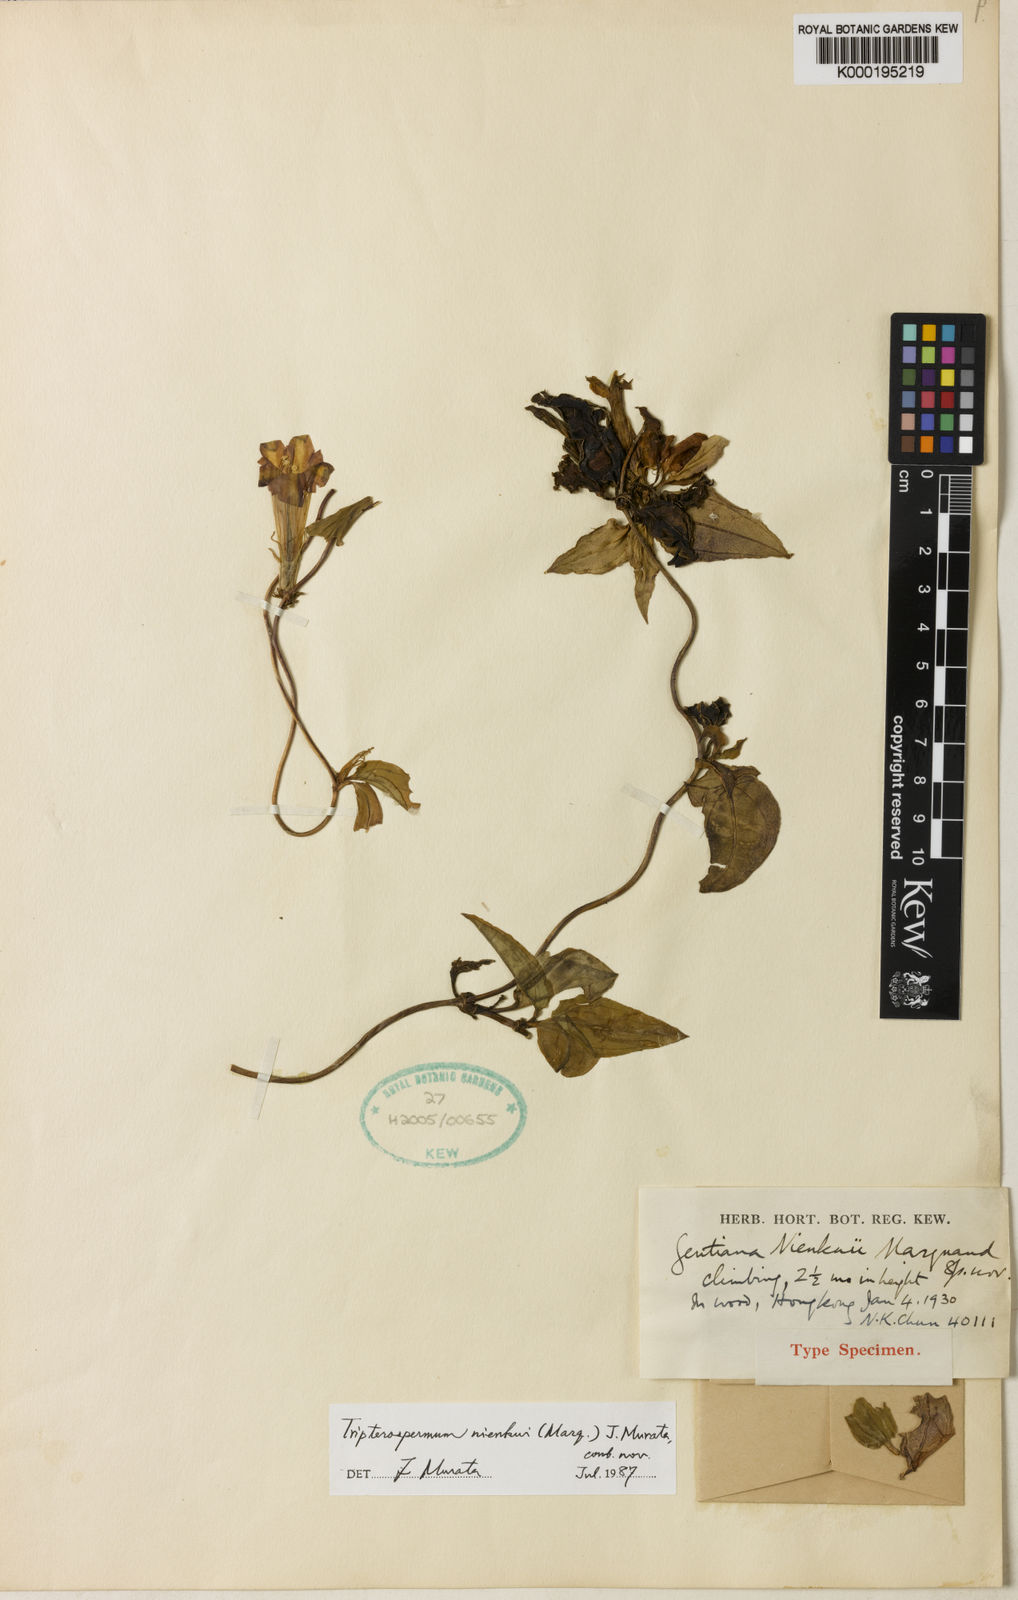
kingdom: Plantae
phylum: Tracheophyta
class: Magnoliopsida
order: Gentianales
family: Gentianaceae
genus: Tripterospermum
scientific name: Tripterospermum
